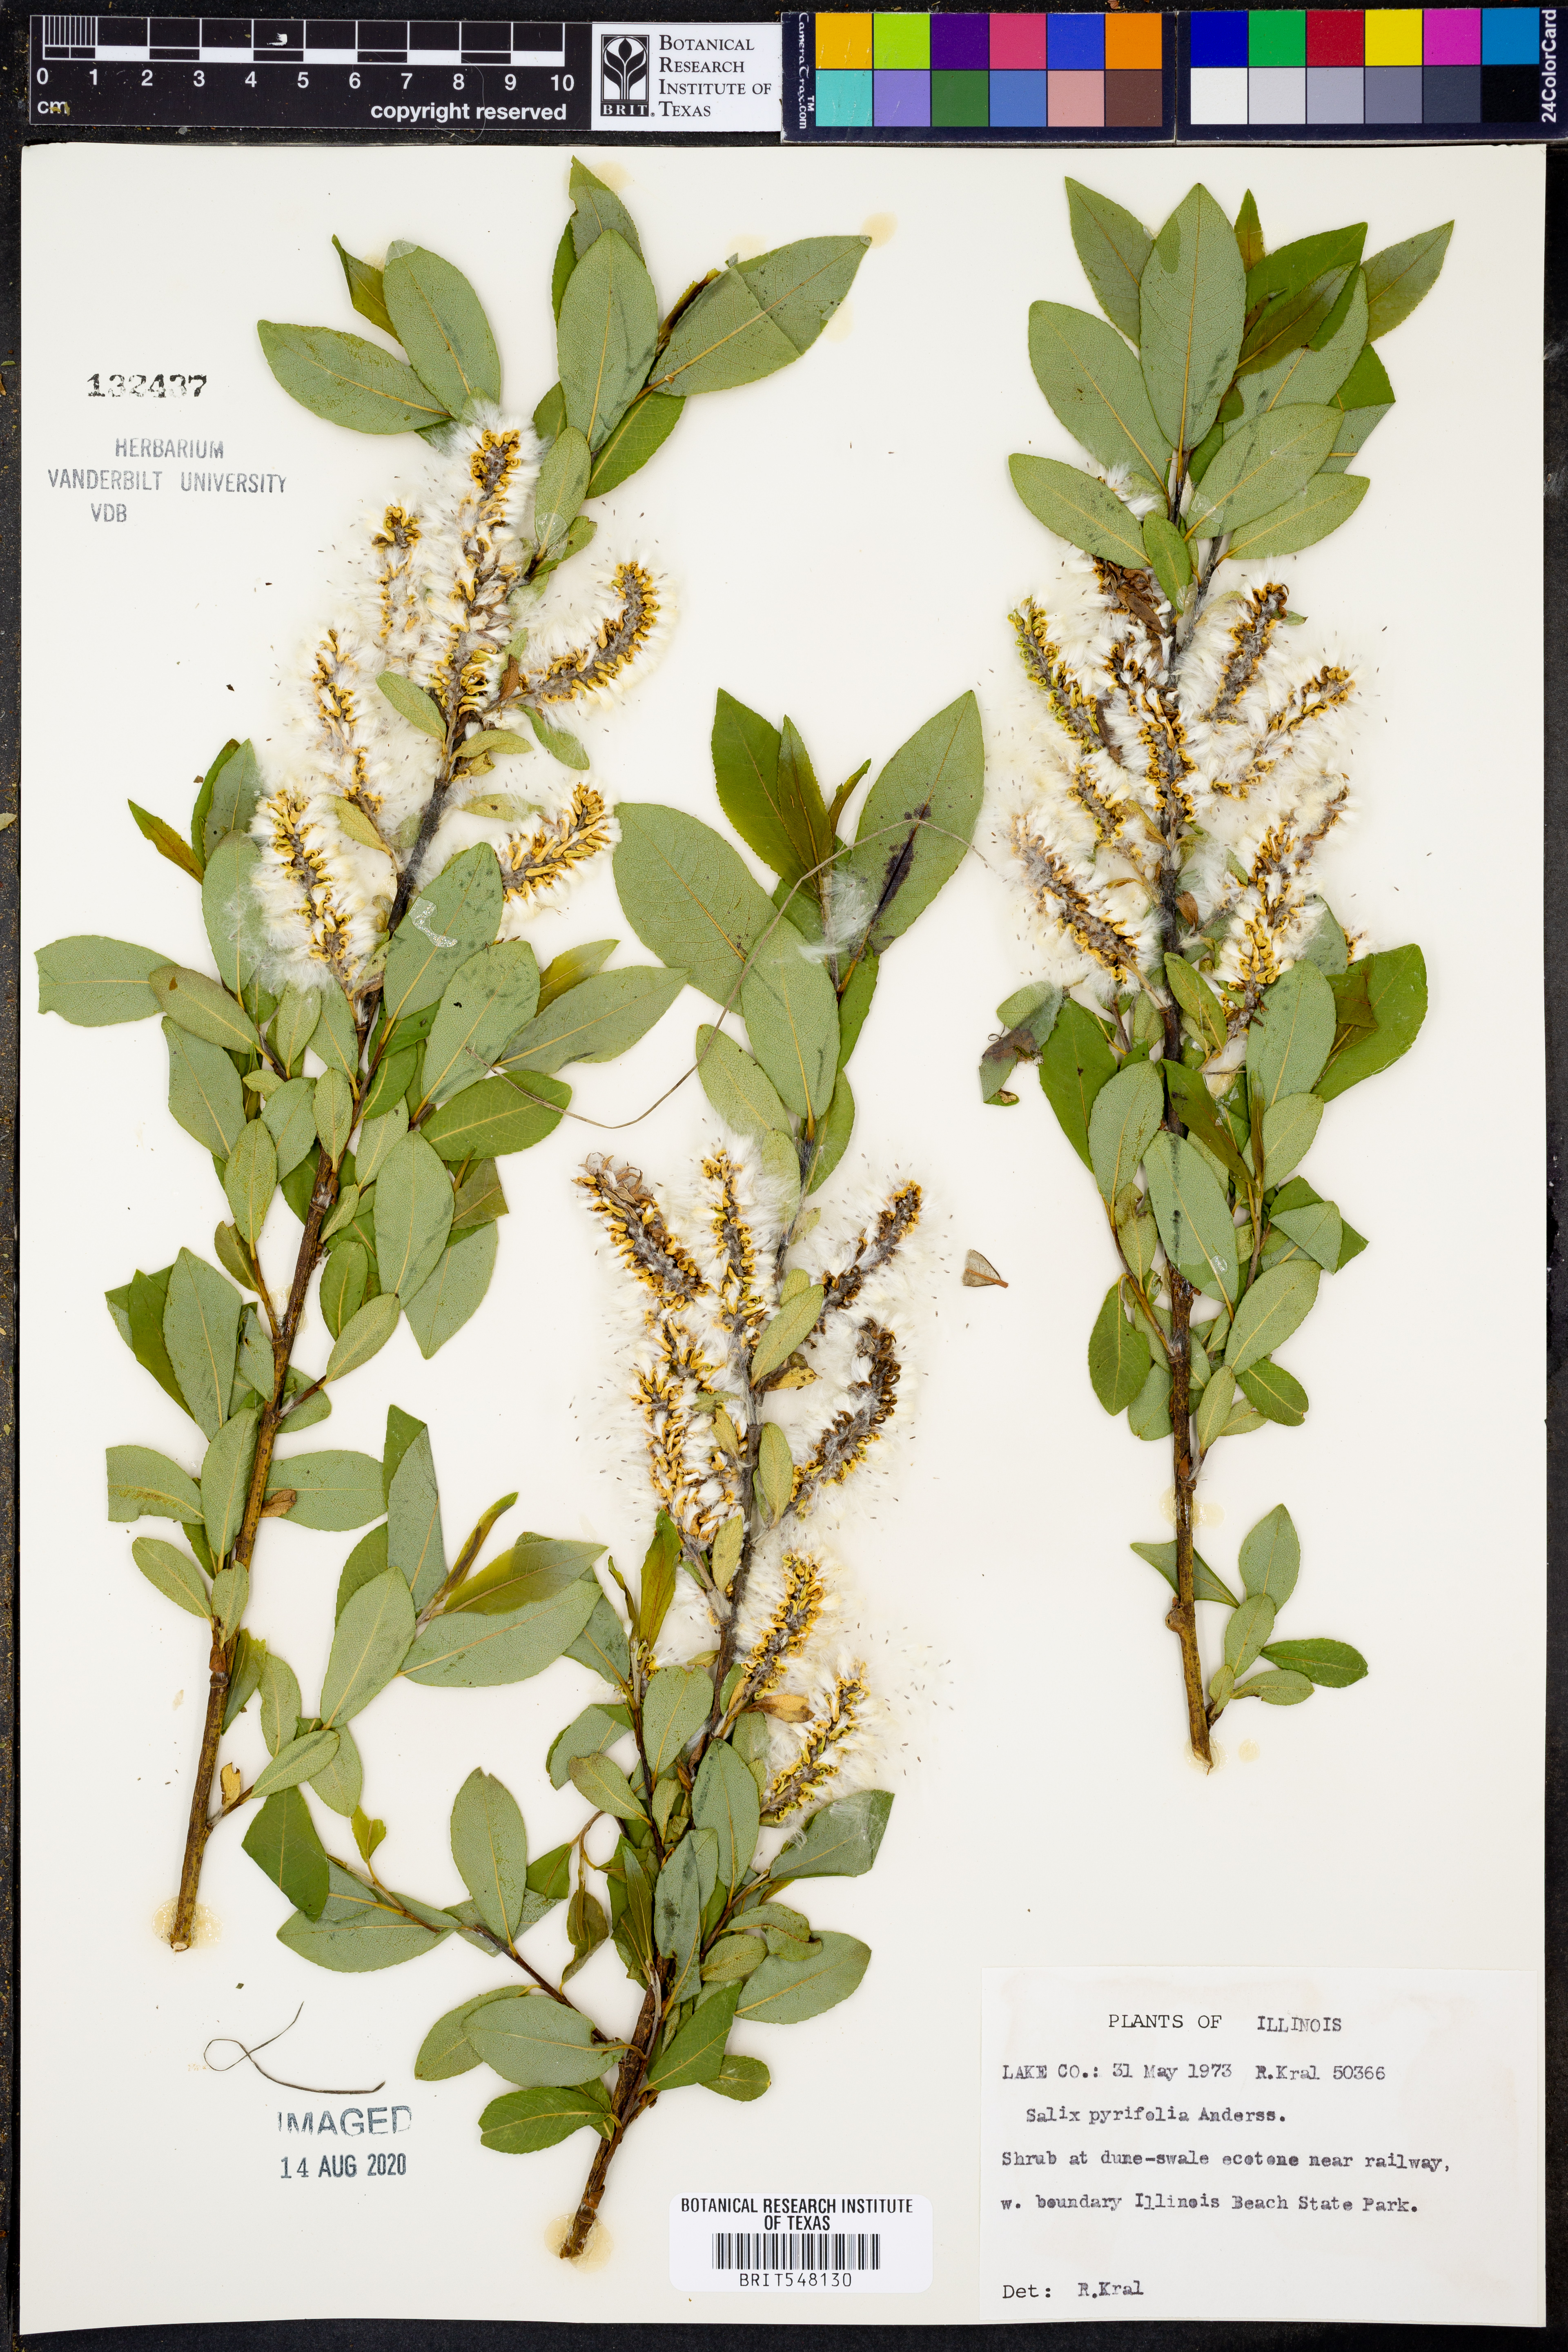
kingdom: Plantae
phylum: Tracheophyta
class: Magnoliopsida
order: Malpighiales
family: Salicaceae
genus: Salix
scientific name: Salix pyrifolia
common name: Balsam willow
